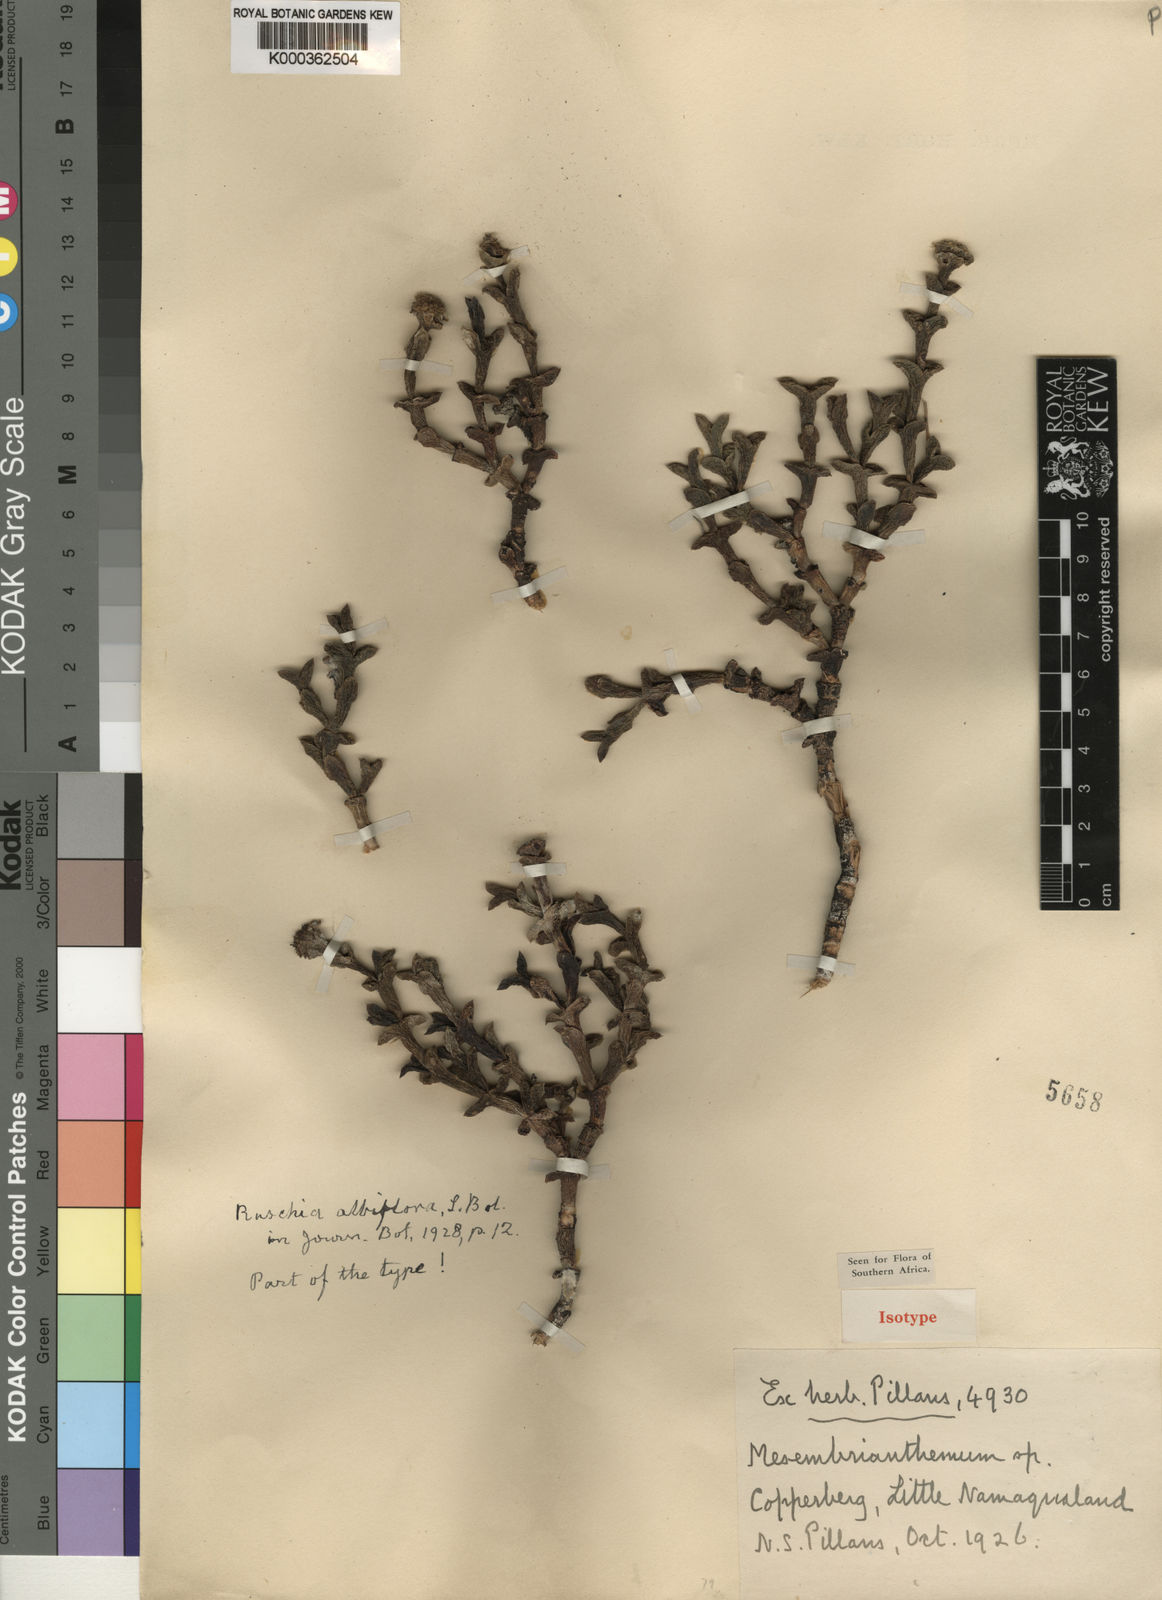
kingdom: Plantae
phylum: Tracheophyta
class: Magnoliopsida
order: Caryophyllales
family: Aizoaceae
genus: Schlechteranthus
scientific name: Schlechteranthus albiflorus
